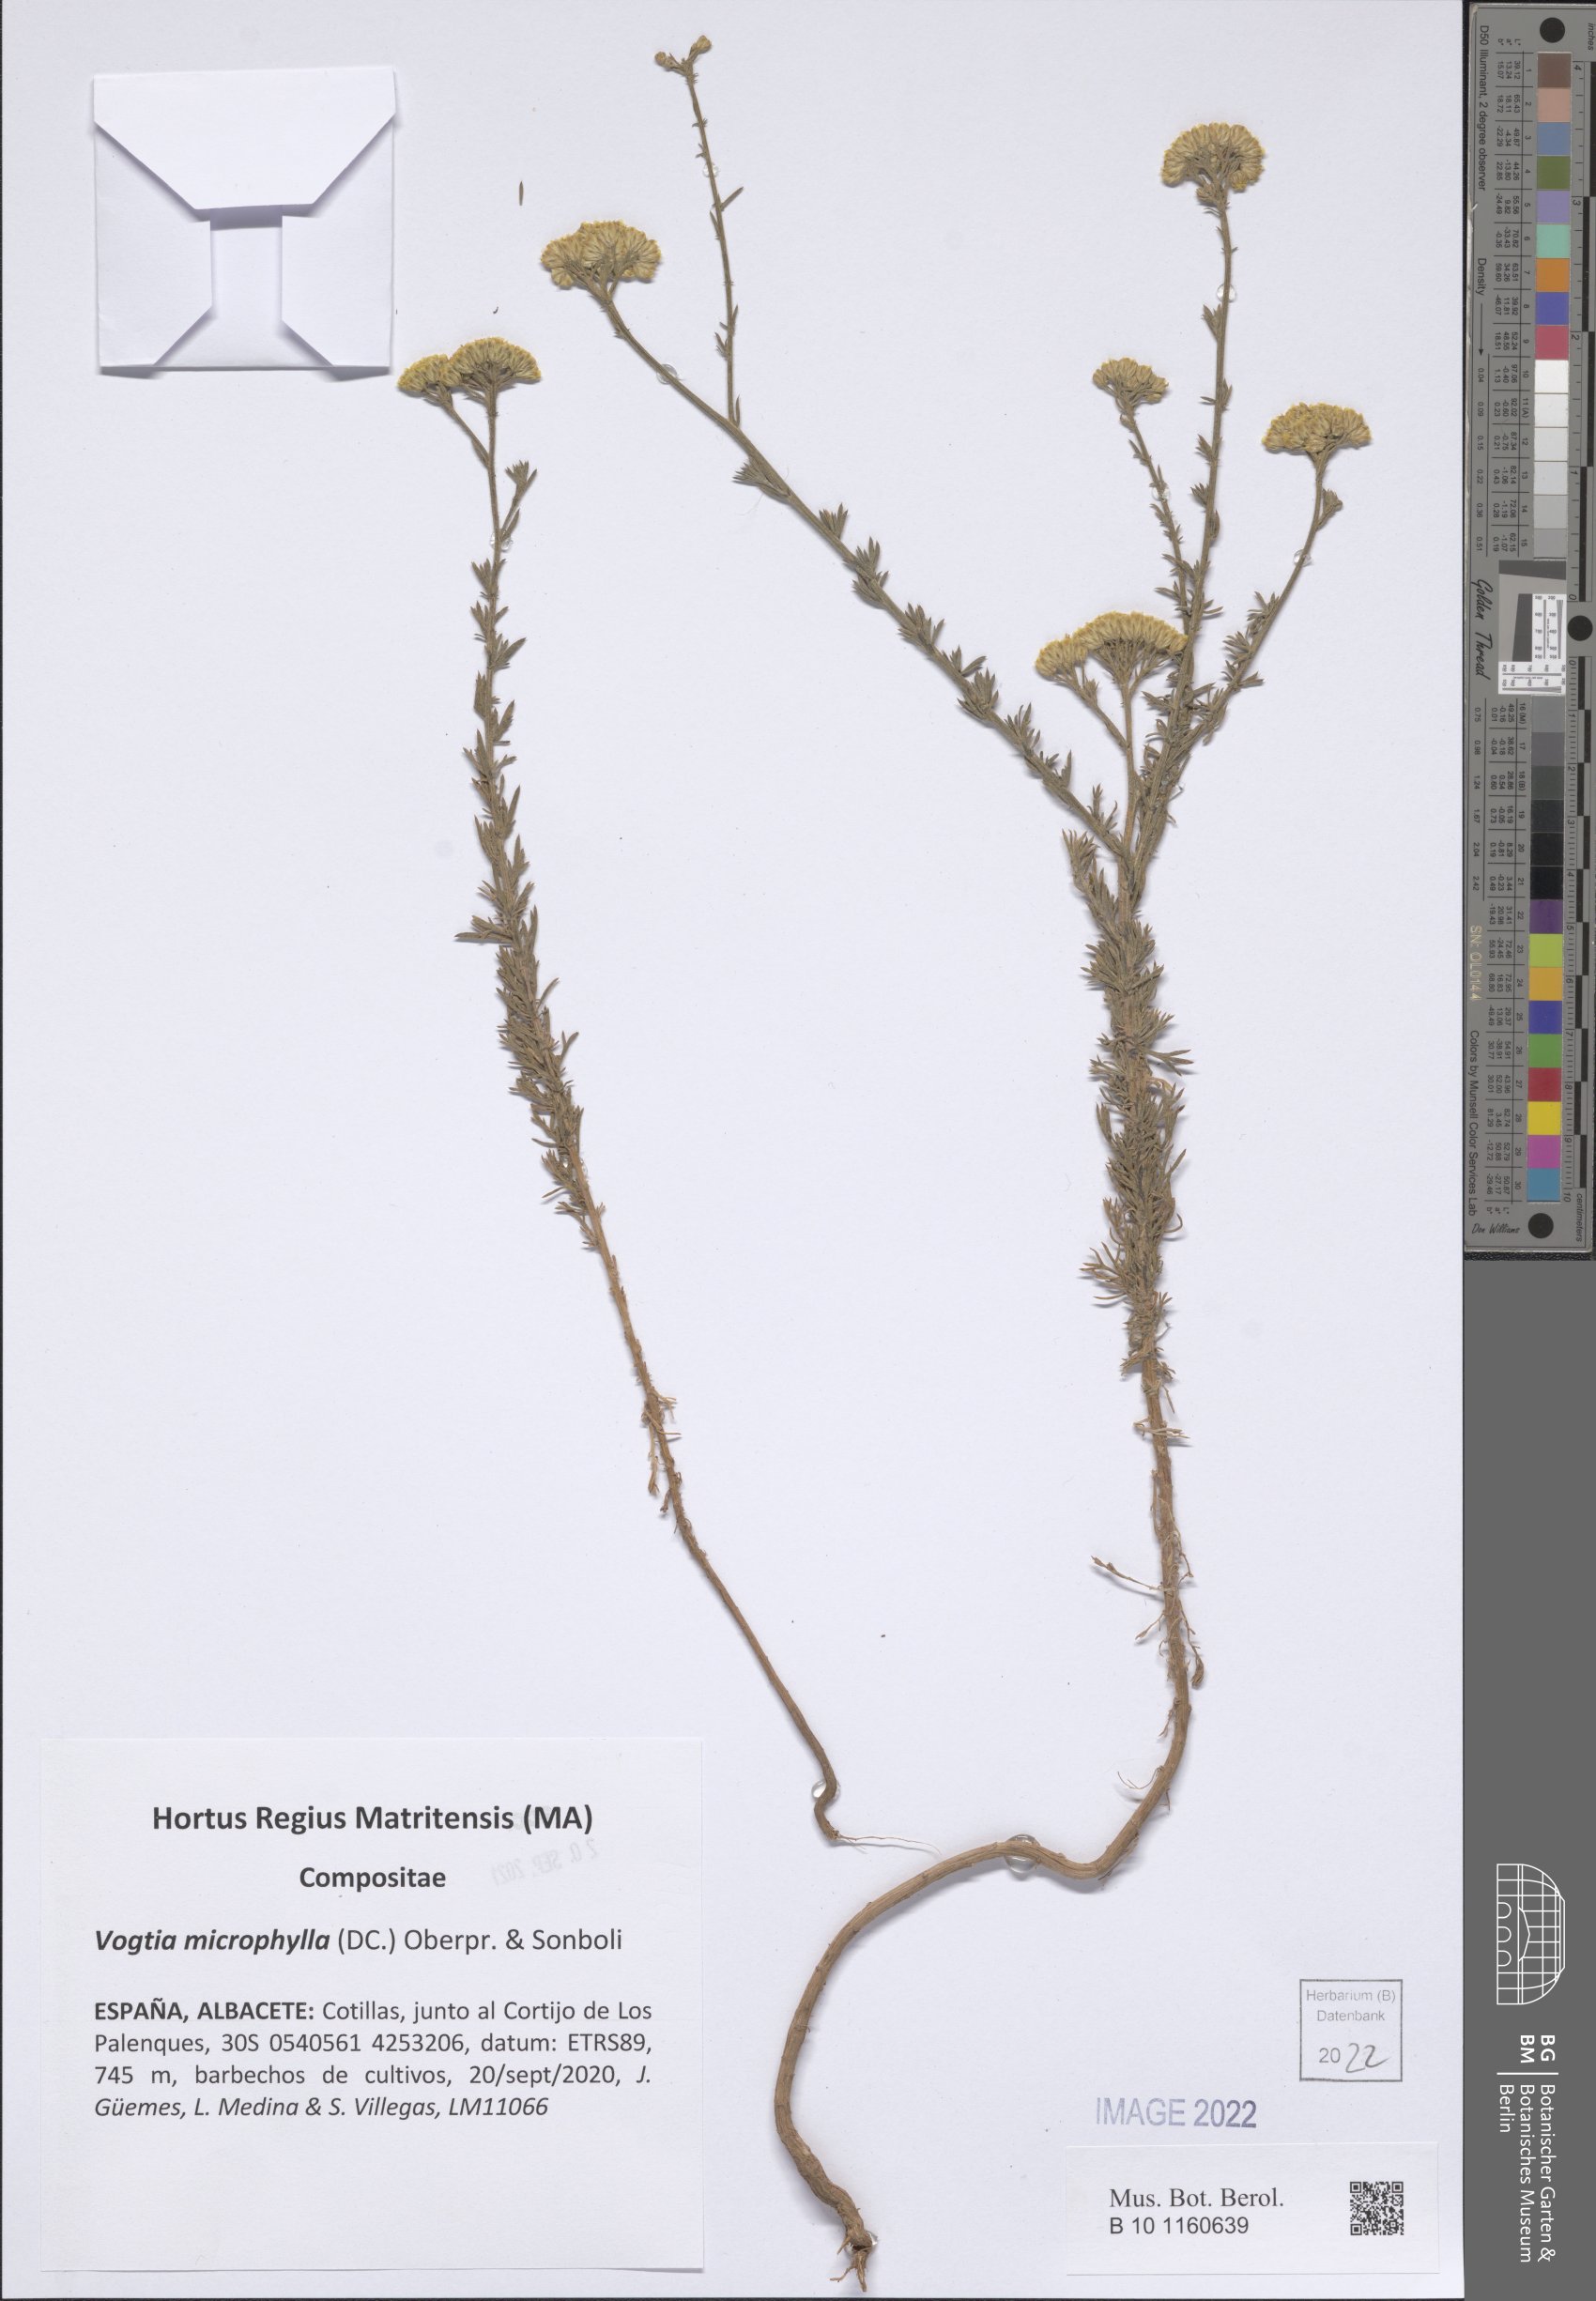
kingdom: Plantae
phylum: Tracheophyta
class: Magnoliopsida
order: Asterales
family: Asteraceae
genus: Vogtia
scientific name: Vogtia annua
